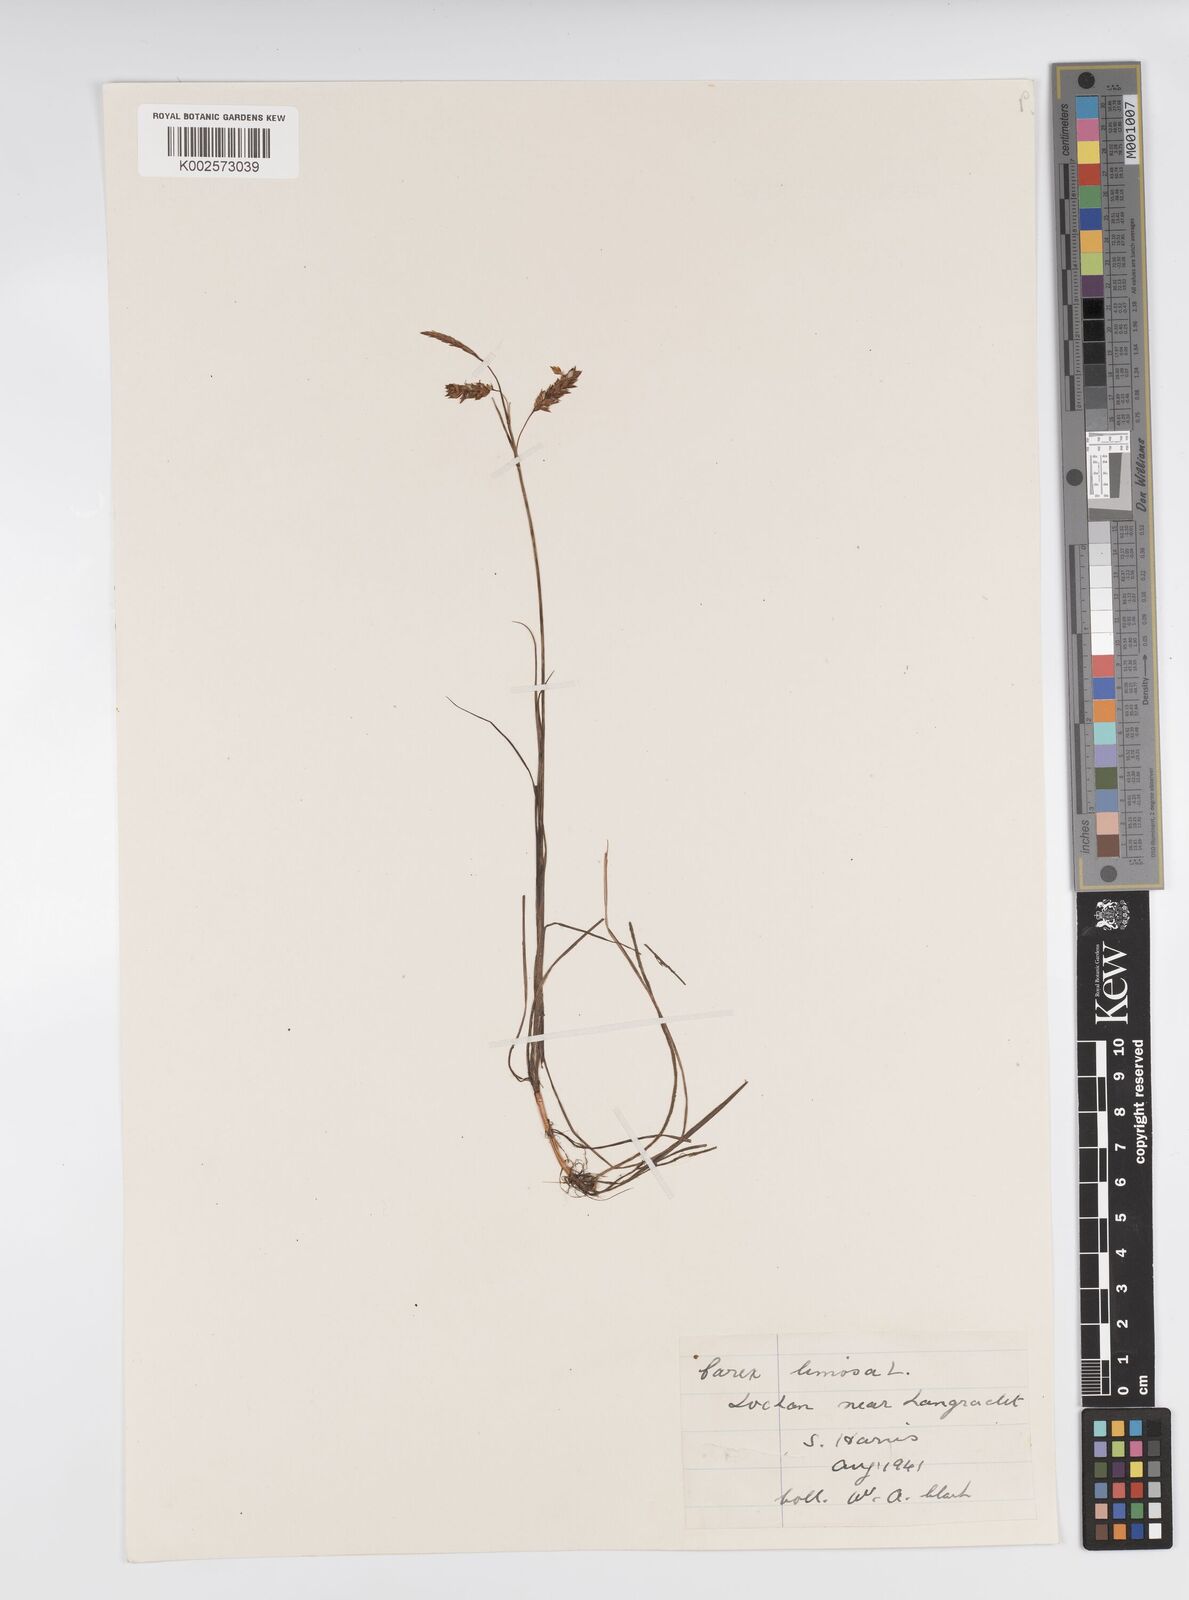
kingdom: Plantae
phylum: Tracheophyta
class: Liliopsida
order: Poales
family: Cyperaceae
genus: Carex
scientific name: Carex limosa
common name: Bog sedge
